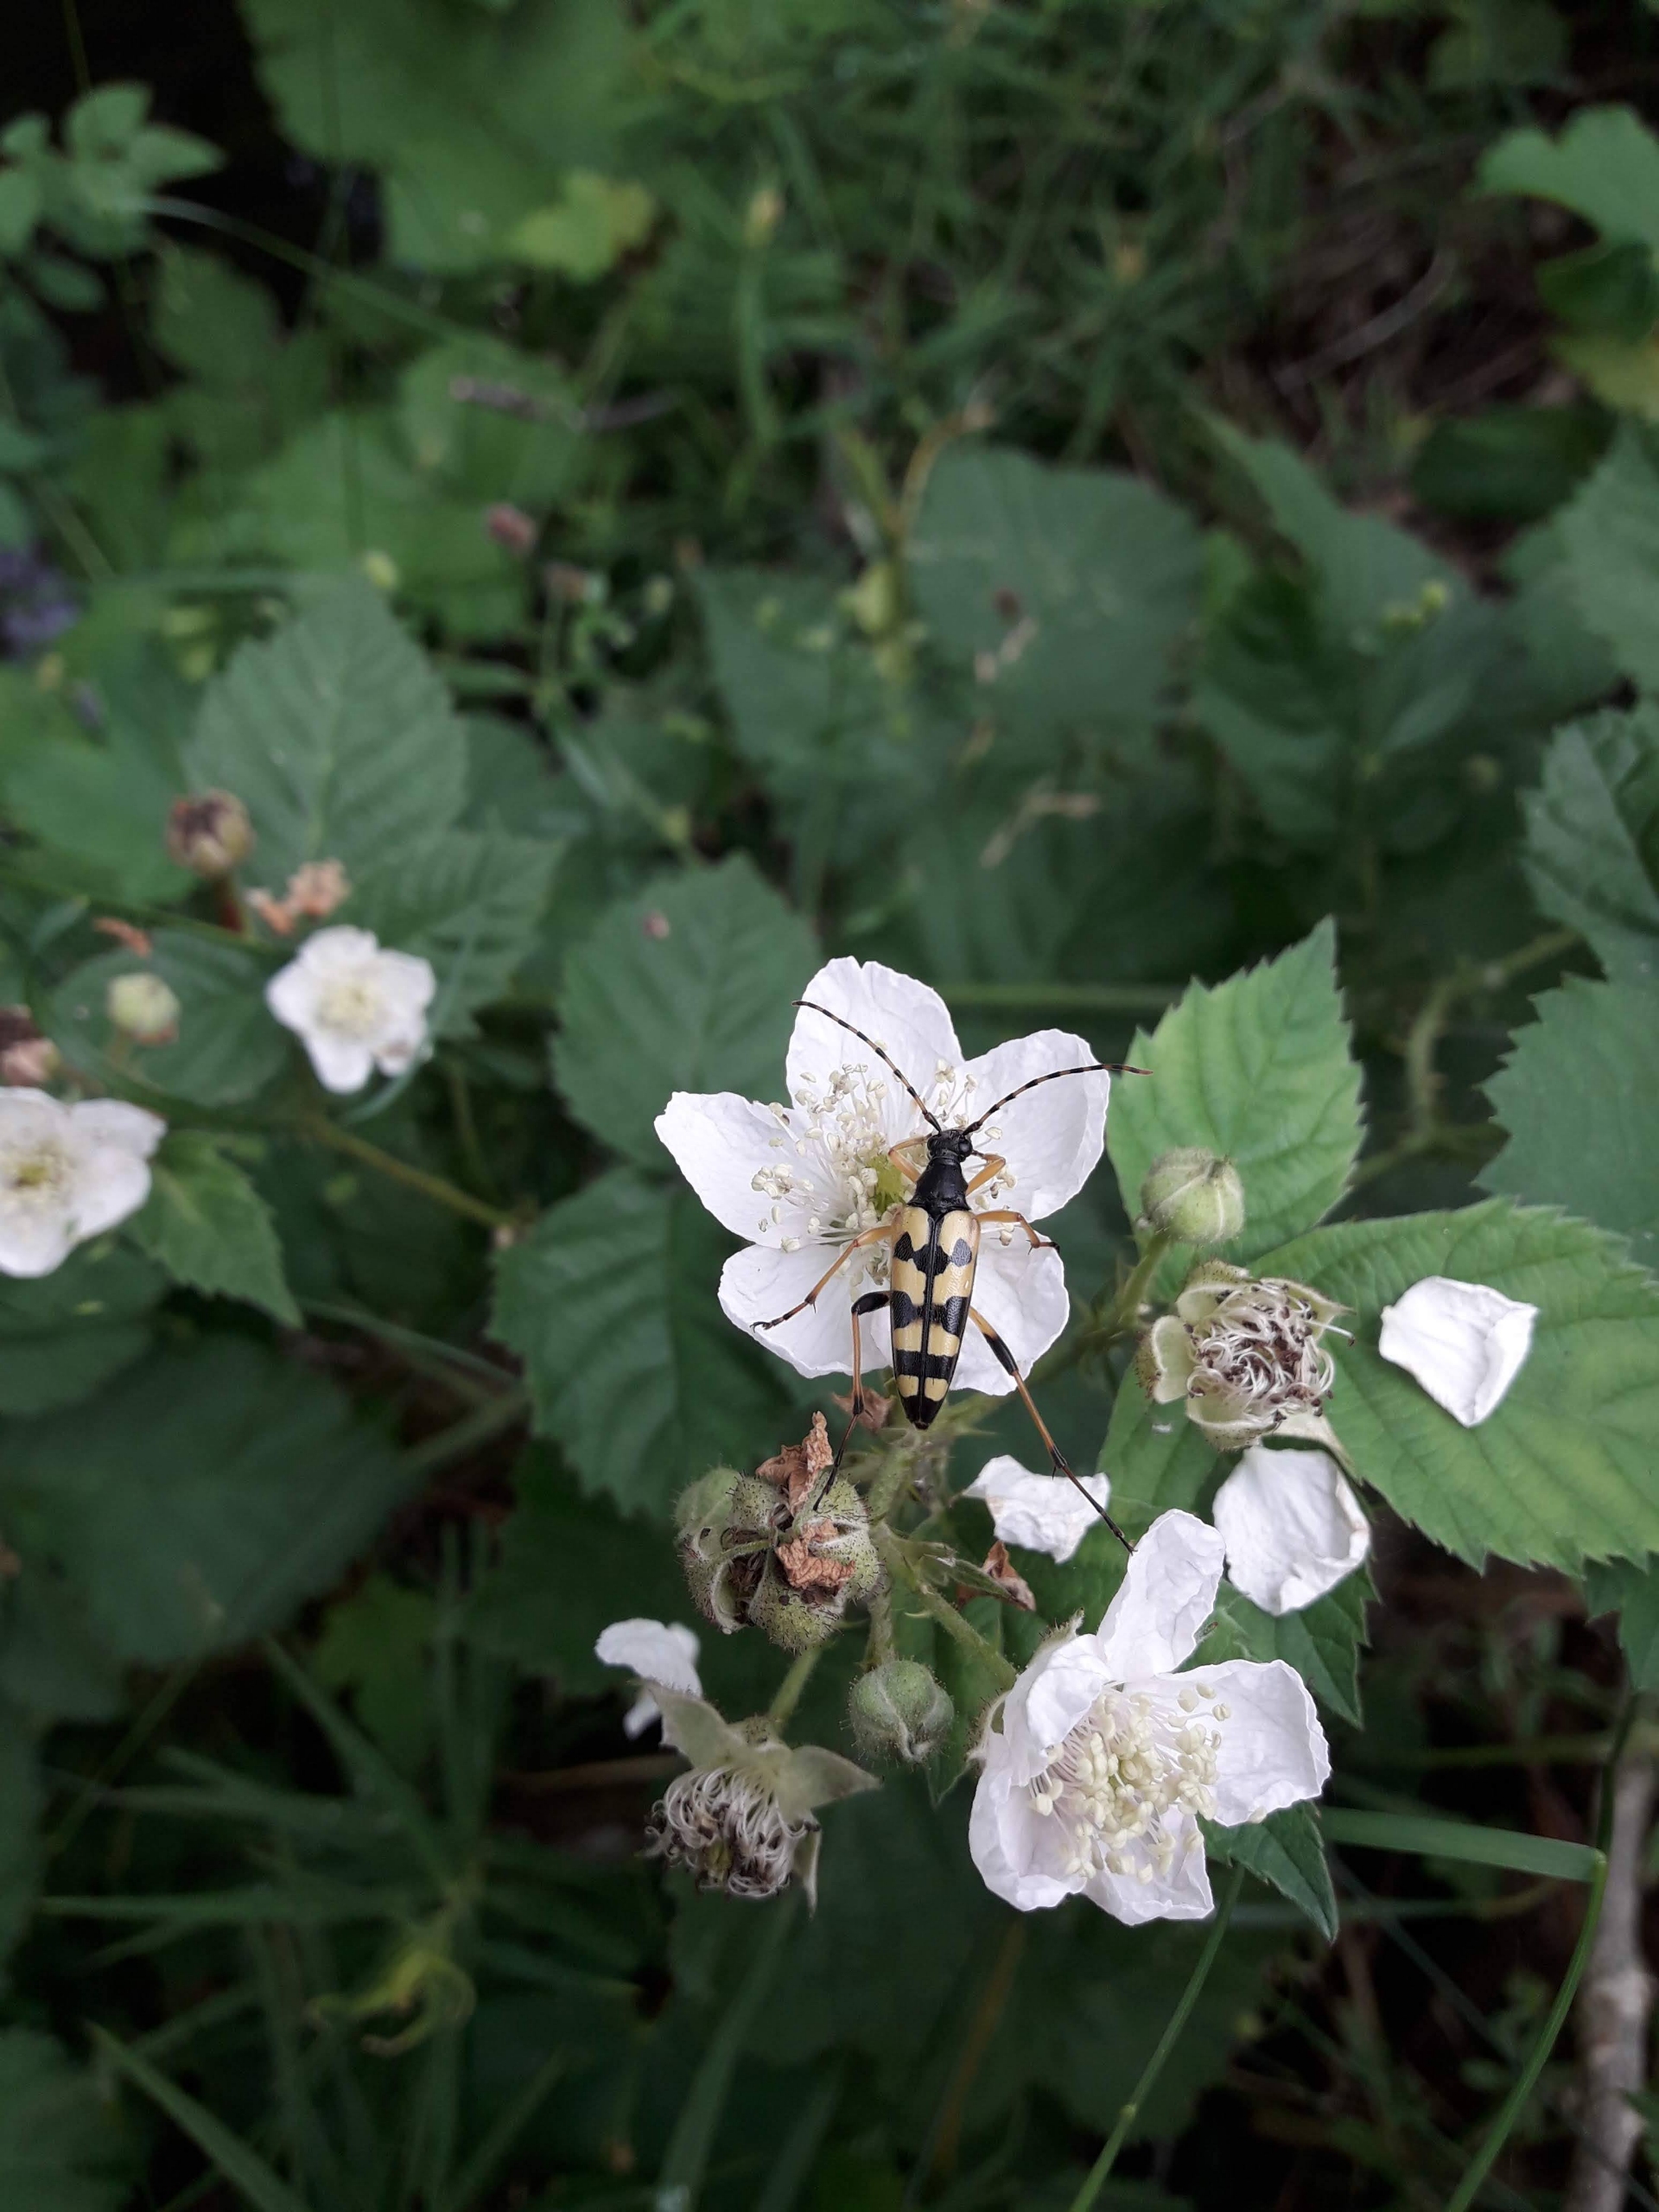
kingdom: Animalia
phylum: Arthropoda
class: Insecta
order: Coleoptera
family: Cerambycidae
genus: Rutpela
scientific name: Rutpela maculata
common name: Sydlig blomsterbuk
